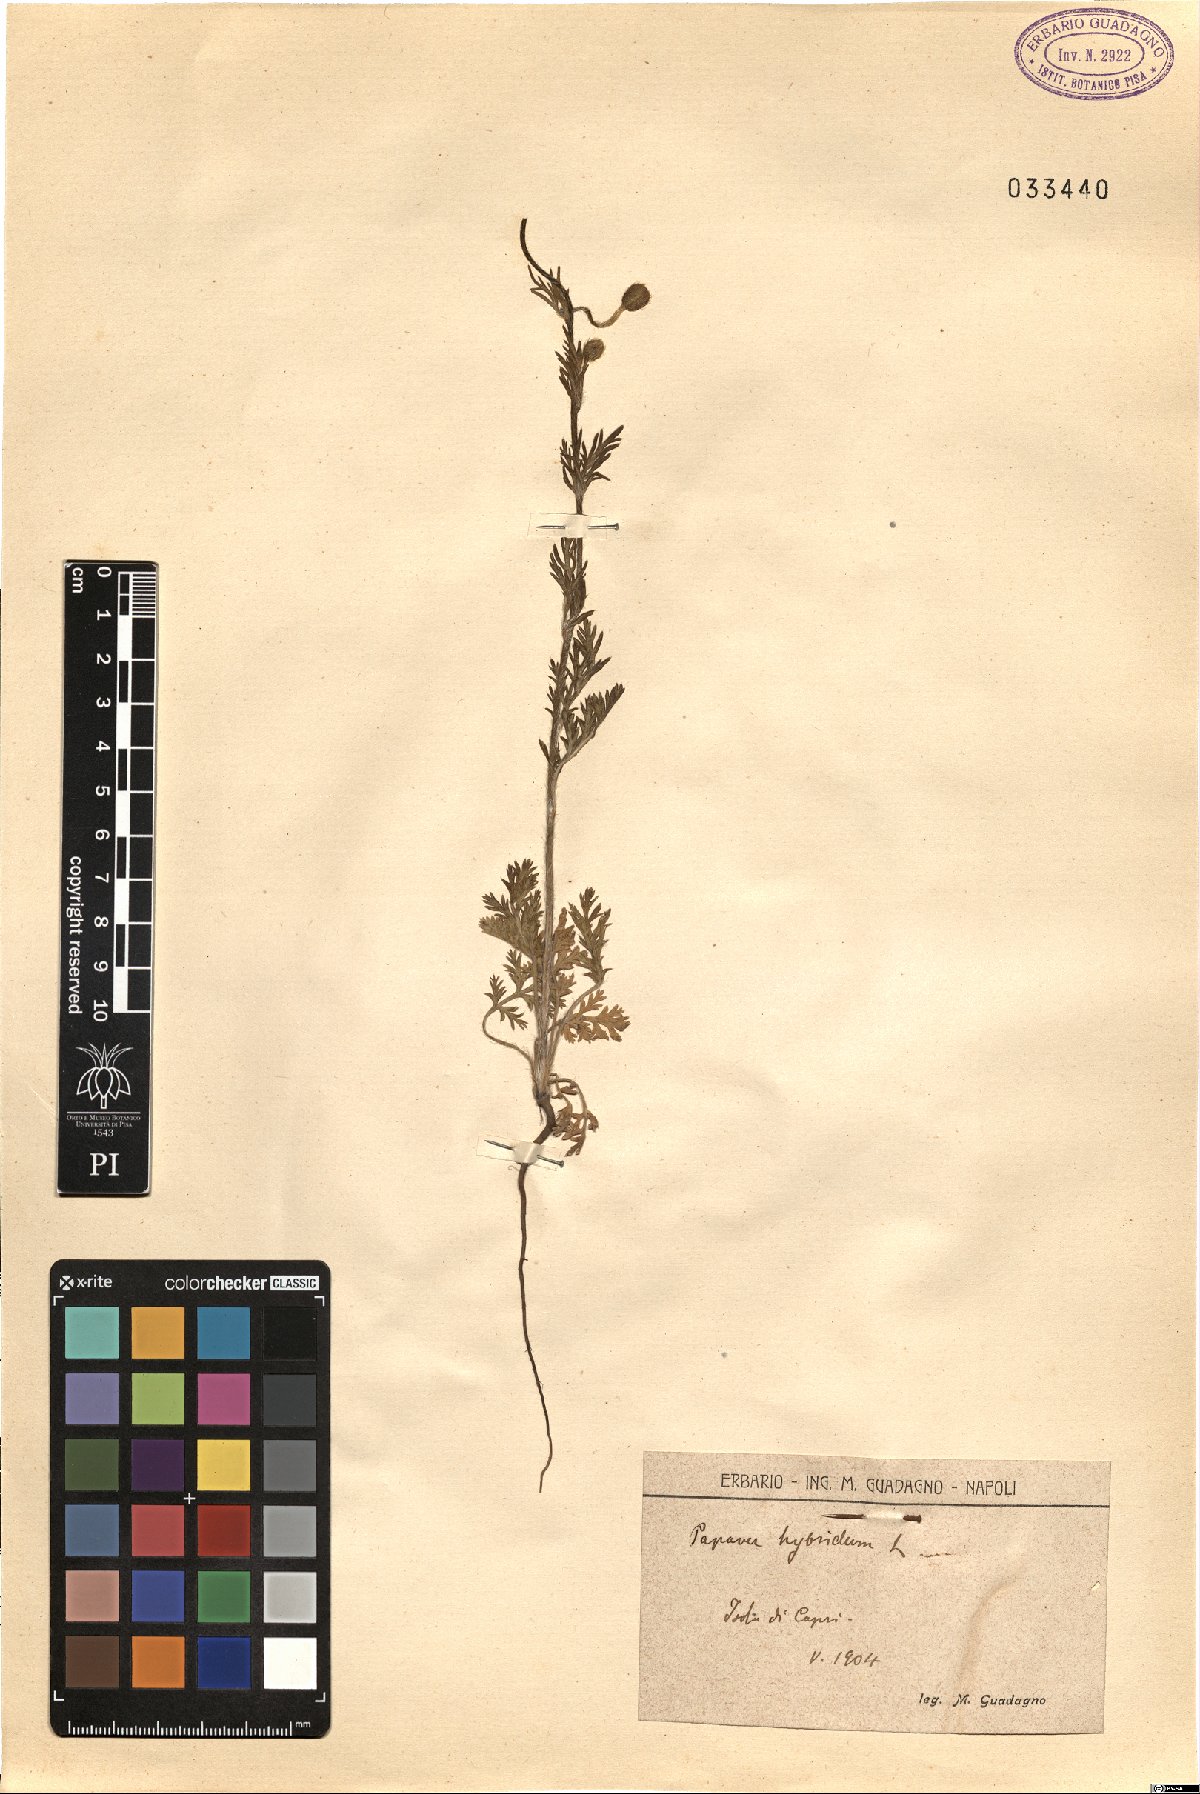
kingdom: Plantae
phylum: Tracheophyta
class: Magnoliopsida
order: Ranunculales
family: Papaveraceae
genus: Roemeria
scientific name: Roemeria hispida
